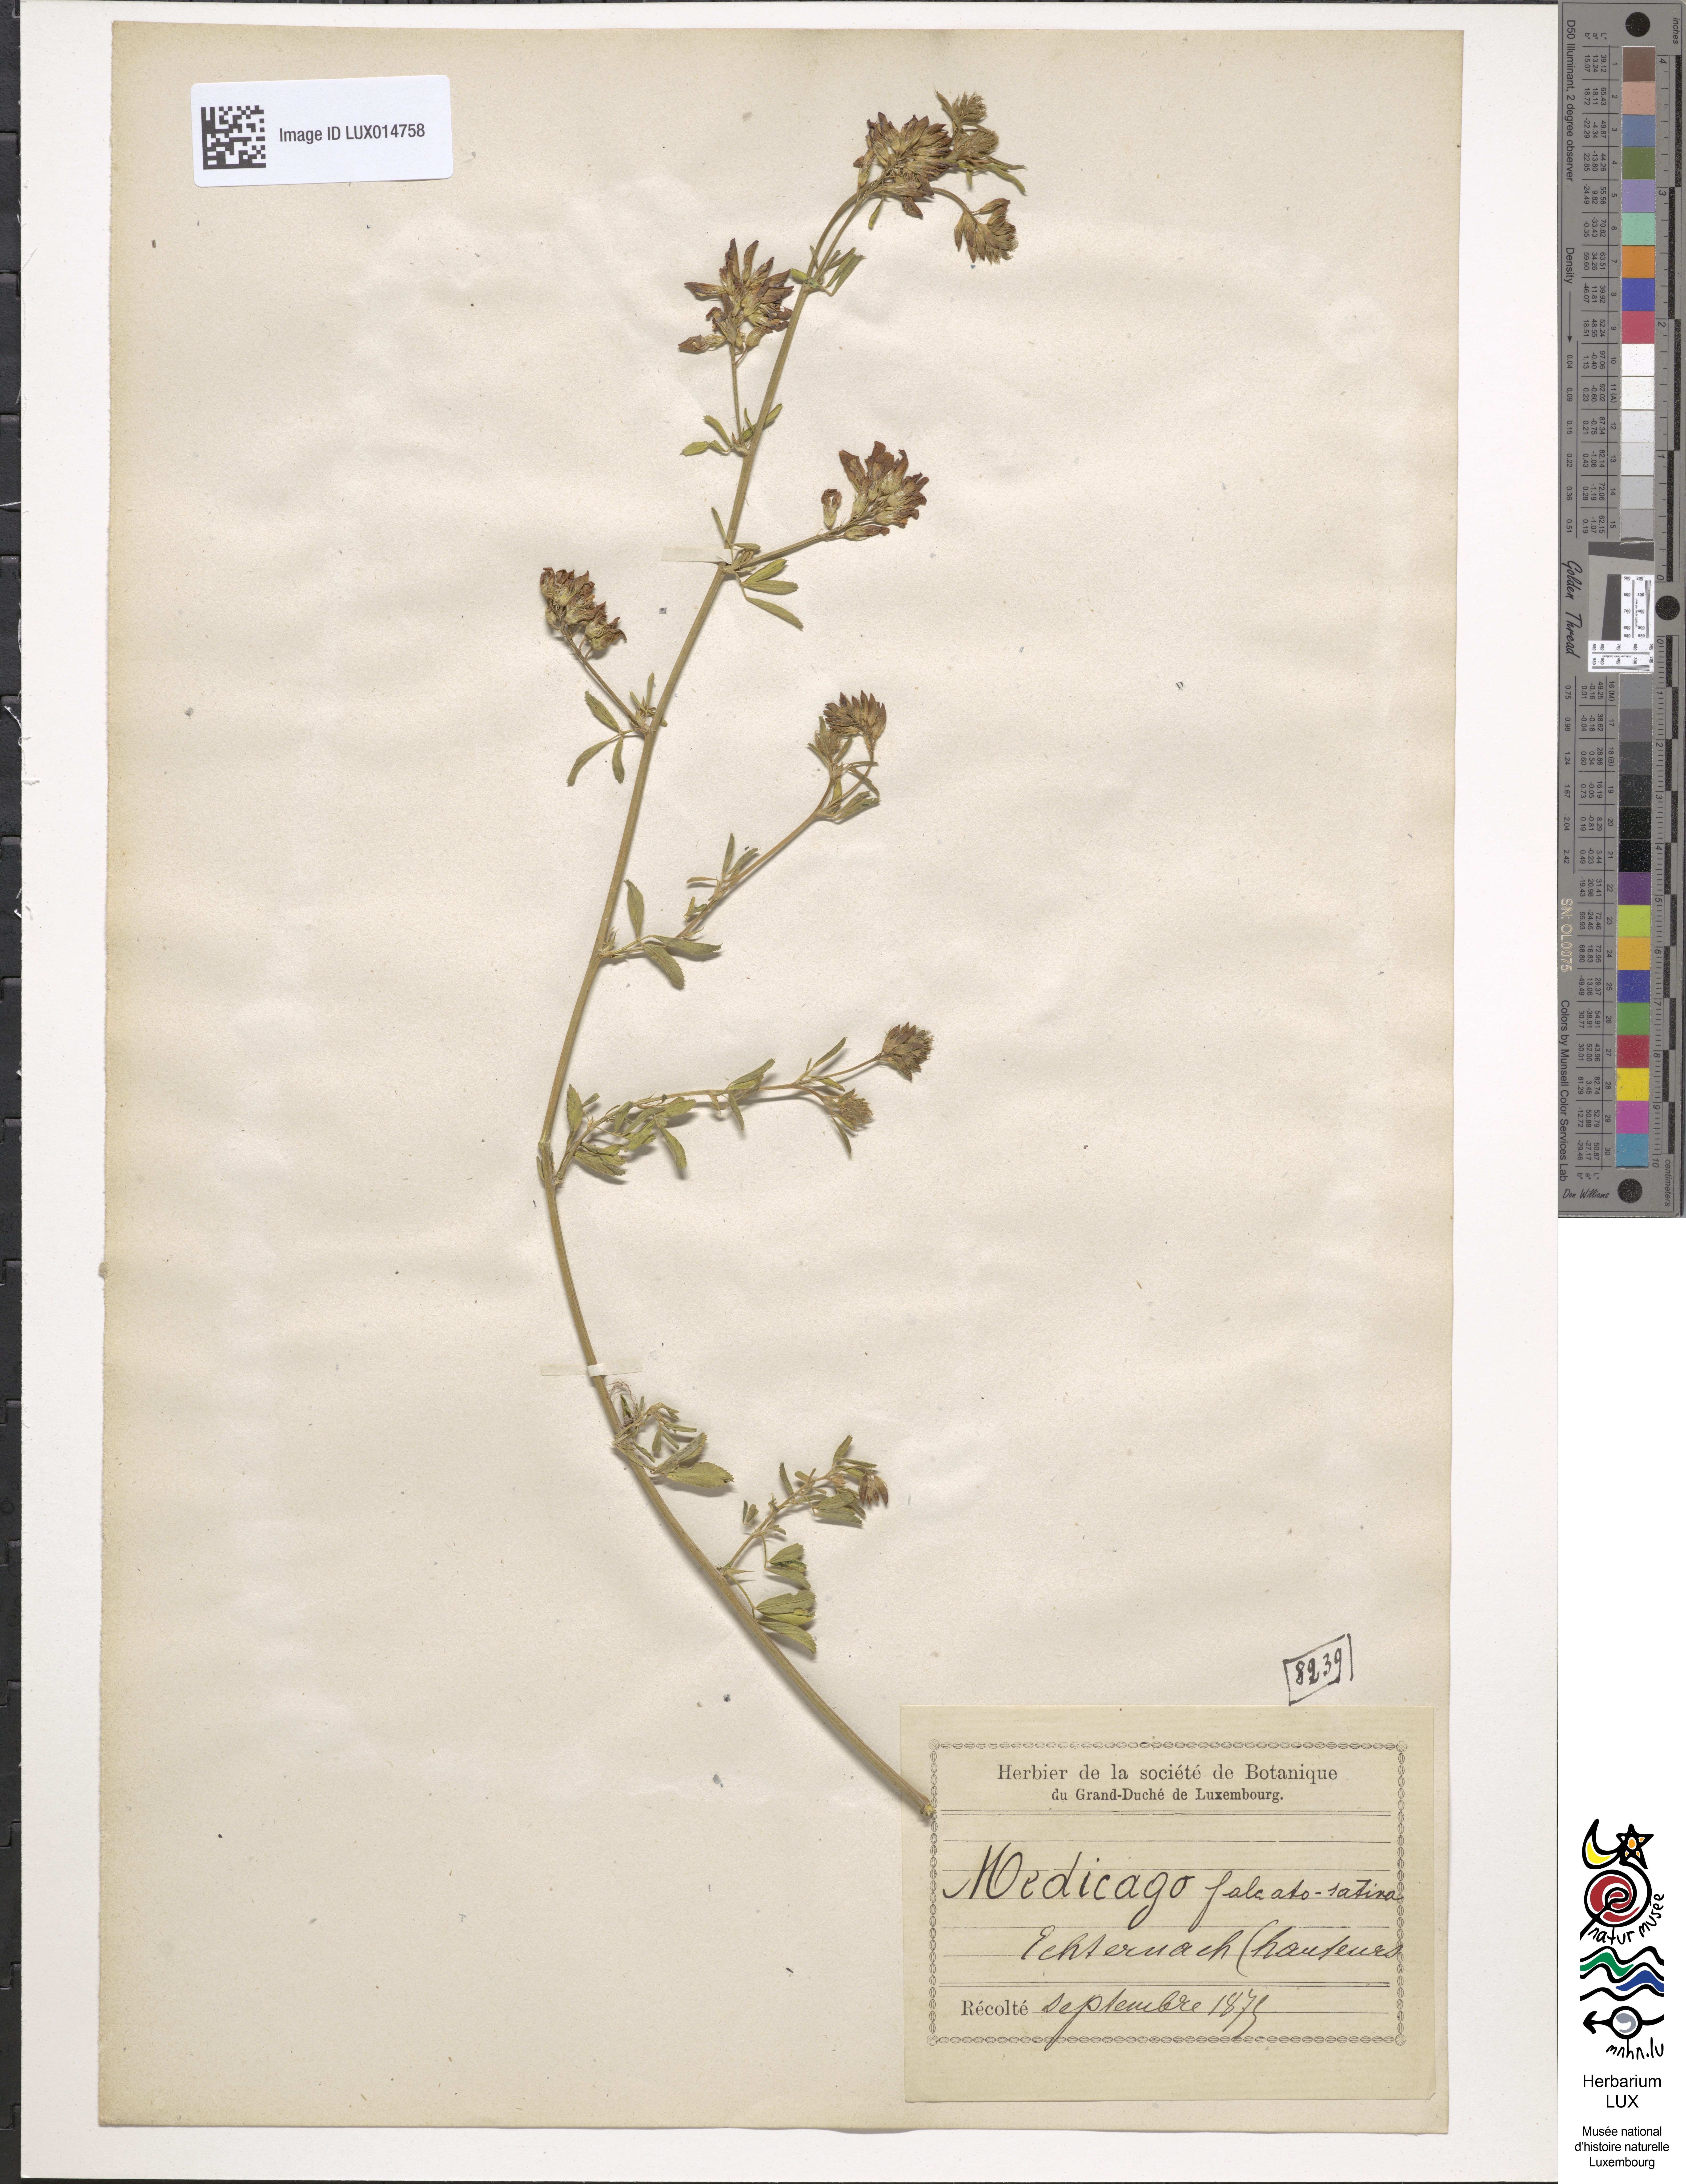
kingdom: Plantae
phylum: Tracheophyta
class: Magnoliopsida
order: Fabales
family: Fabaceae
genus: Medicago
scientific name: Medicago varia
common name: Sand lucerne
